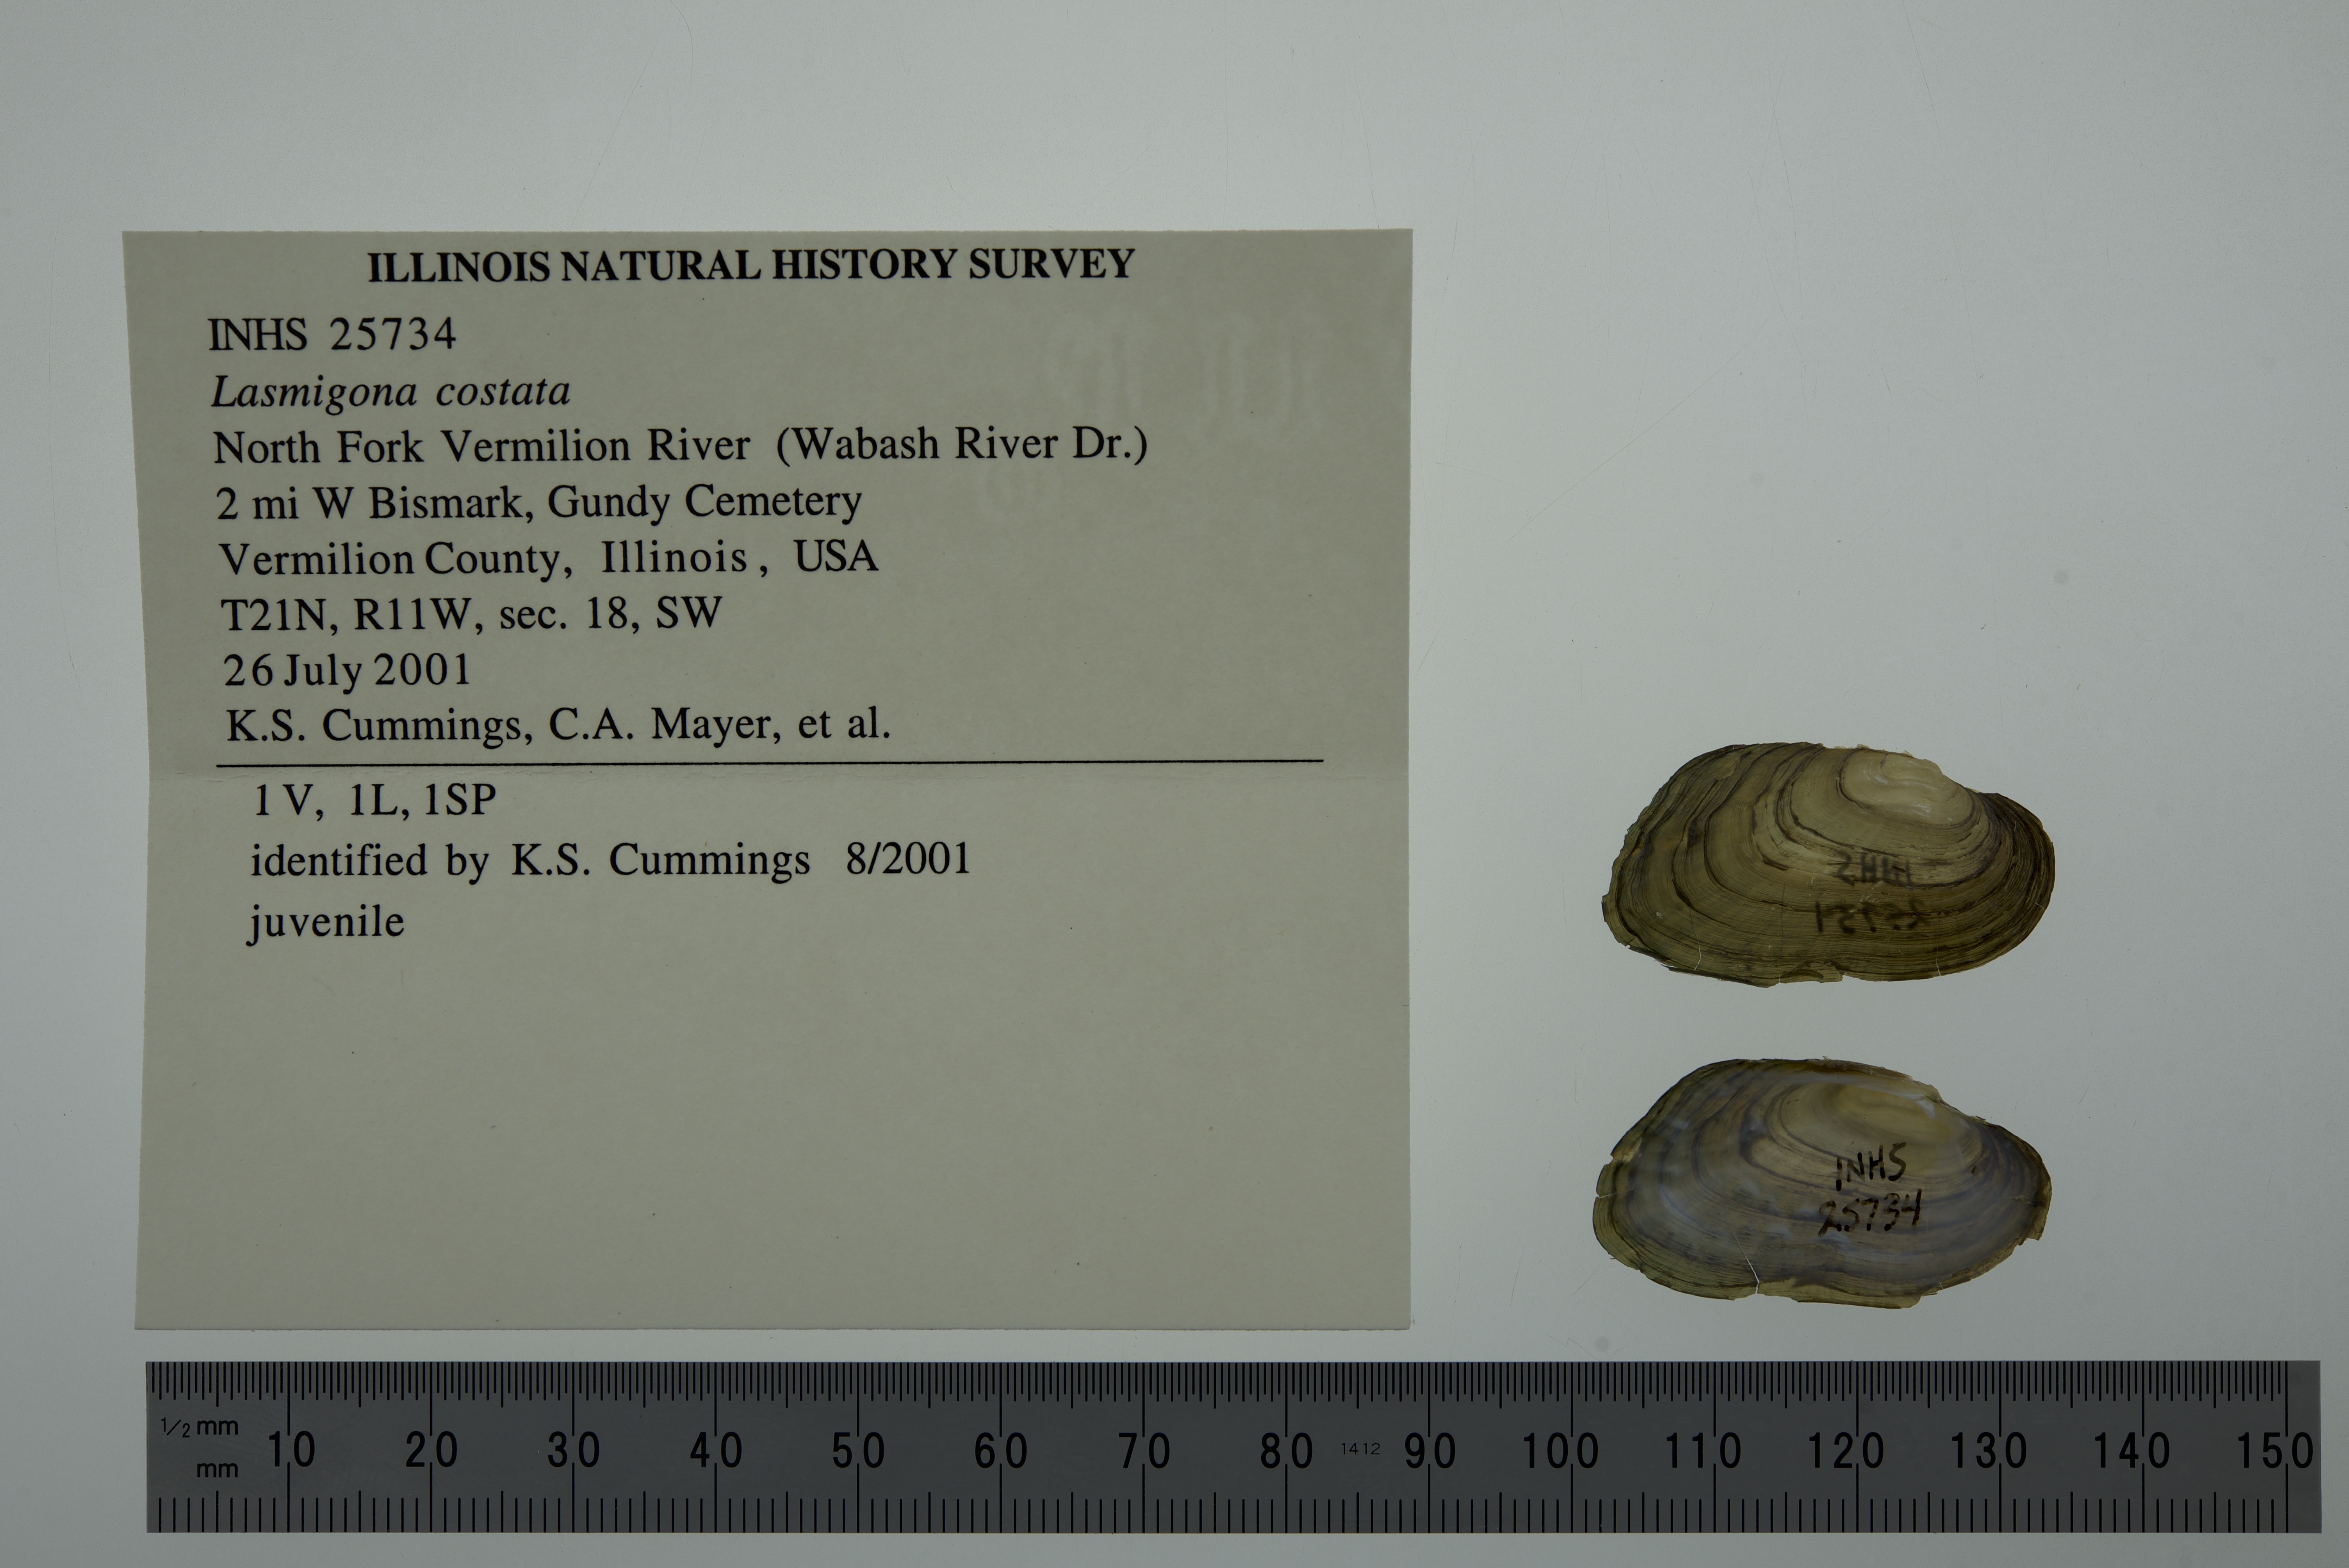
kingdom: Animalia
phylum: Mollusca
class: Bivalvia
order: Unionida
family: Unionidae
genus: Lasmigona
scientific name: Lasmigona costata
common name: Flutedshell
